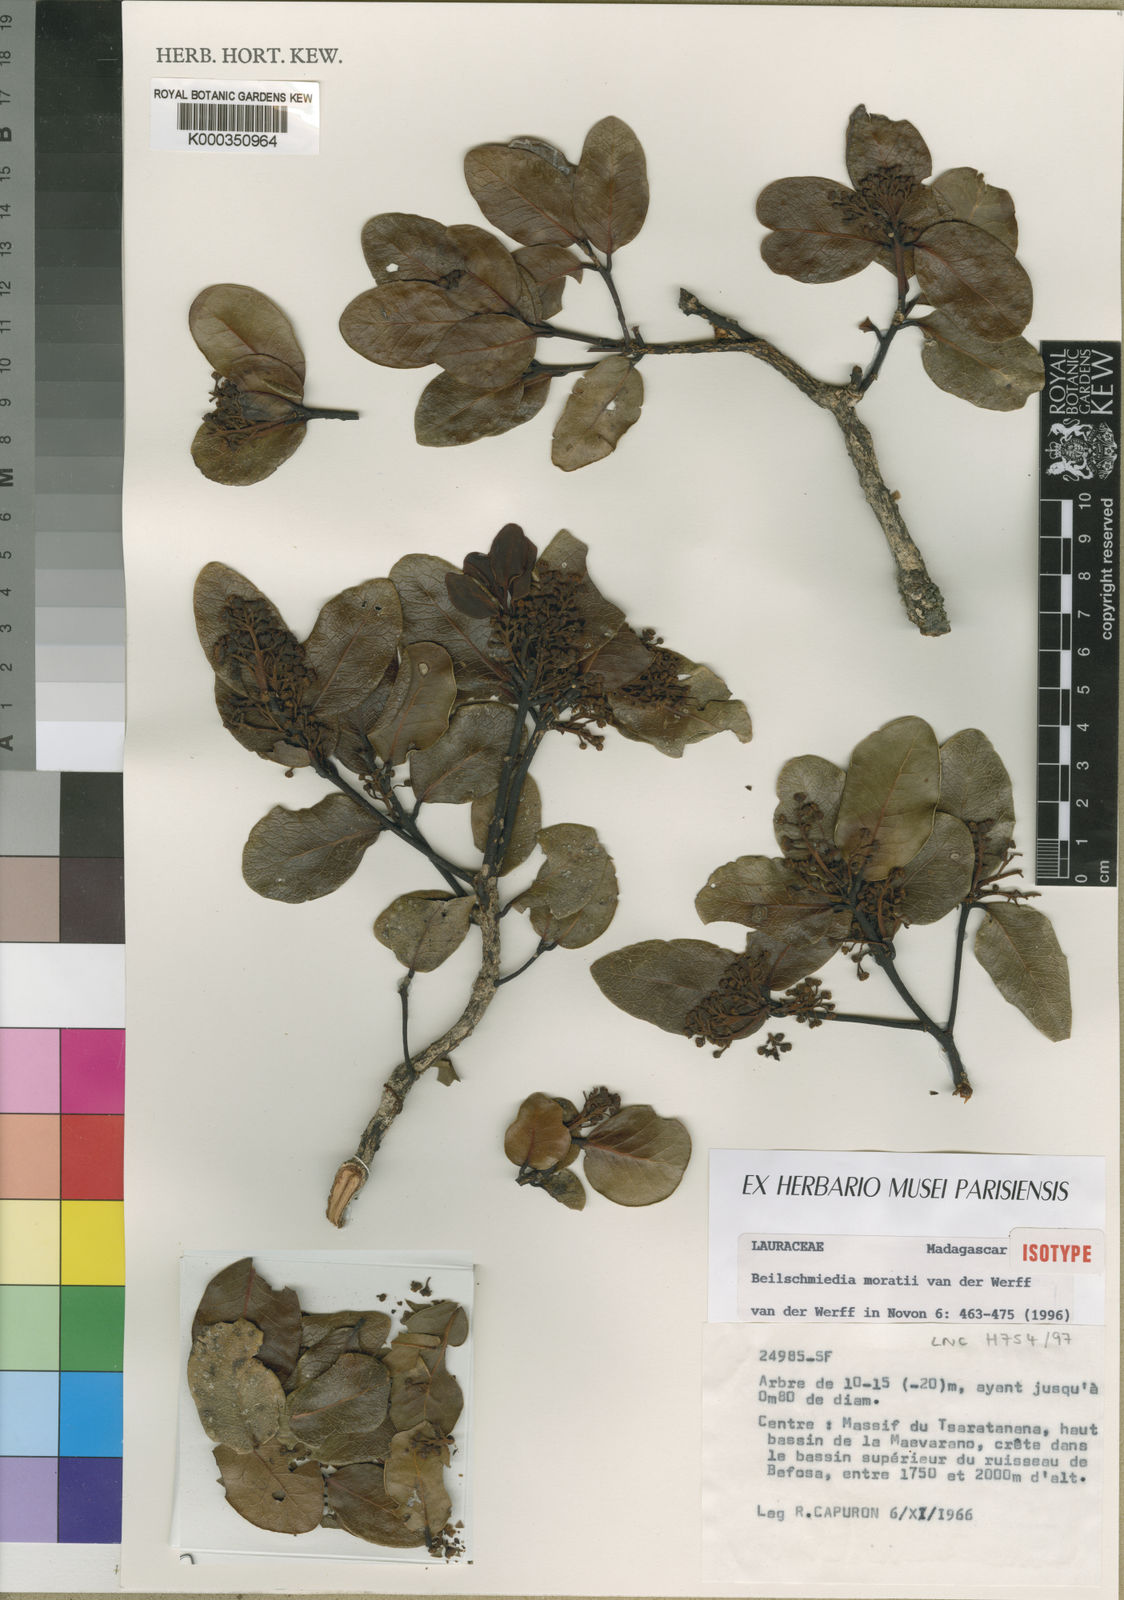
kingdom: Plantae
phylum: Tracheophyta
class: Magnoliopsida
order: Laurales
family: Lauraceae
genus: Beilschmiedia
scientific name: Beilschmiedia moratii
